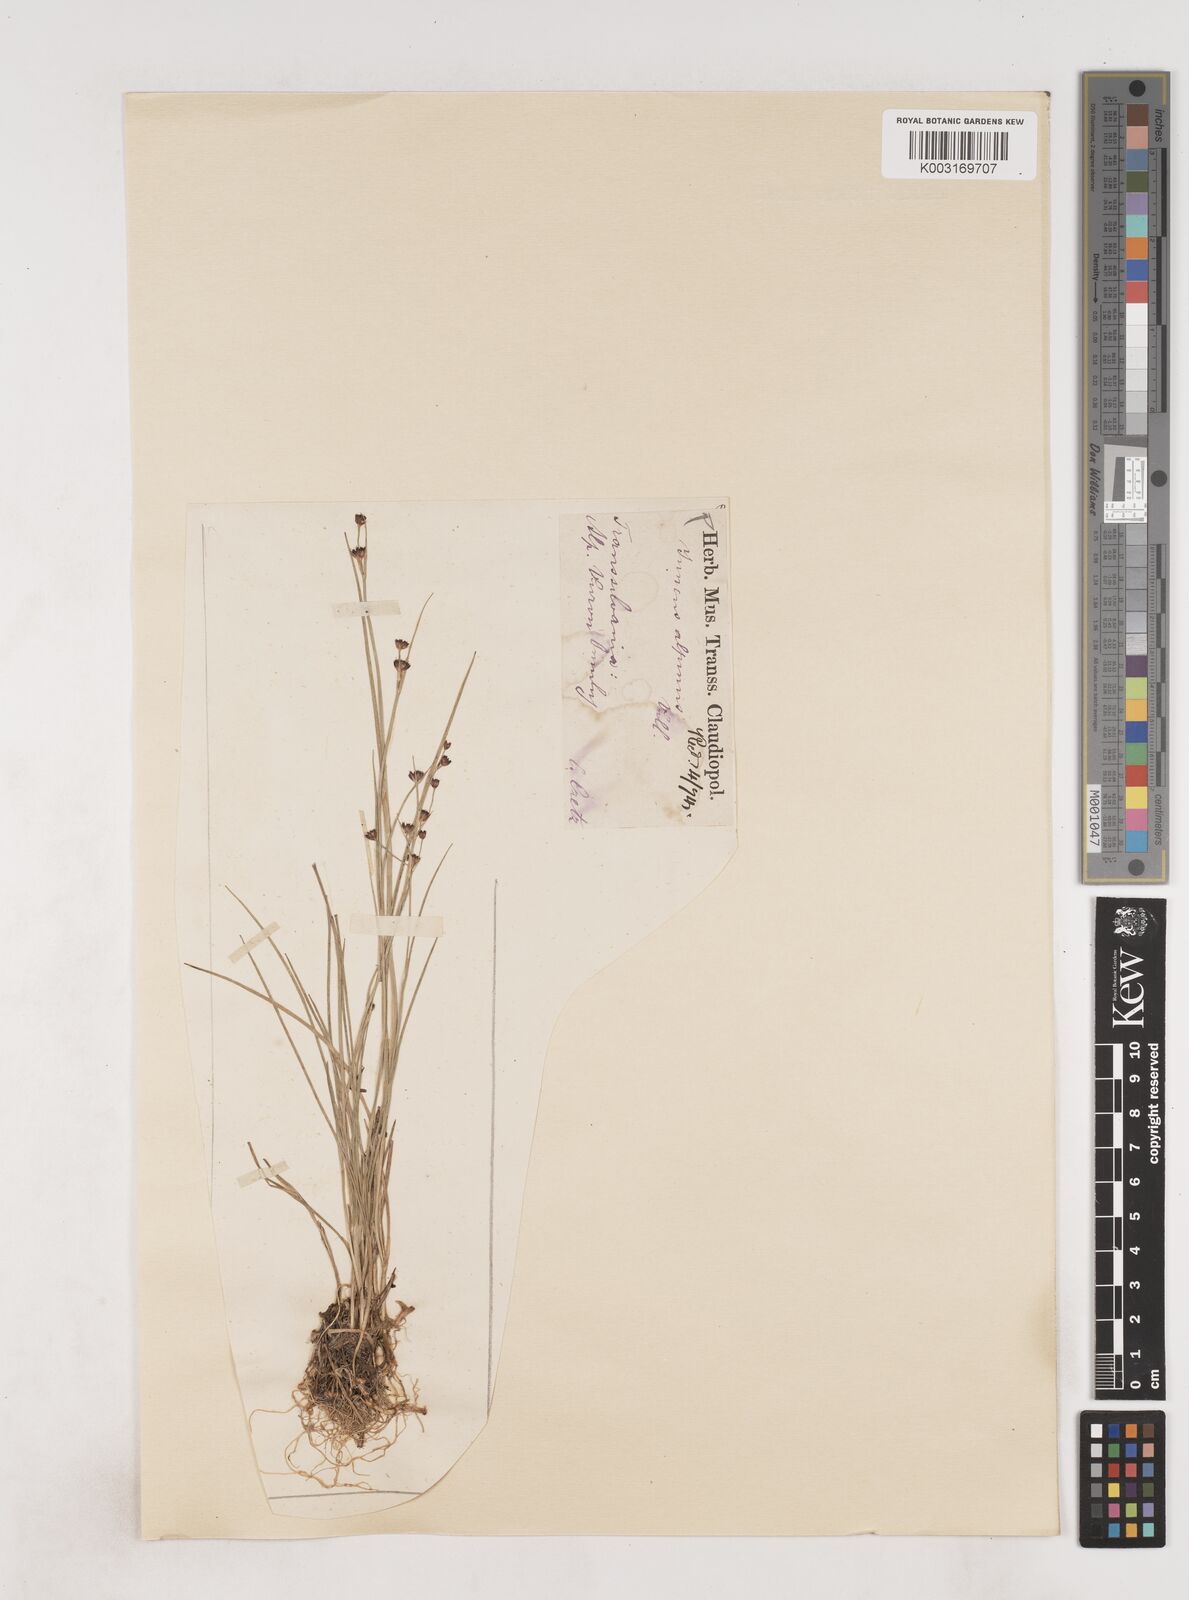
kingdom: Plantae
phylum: Tracheophyta
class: Liliopsida
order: Poales
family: Juncaceae
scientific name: Juncaceae
